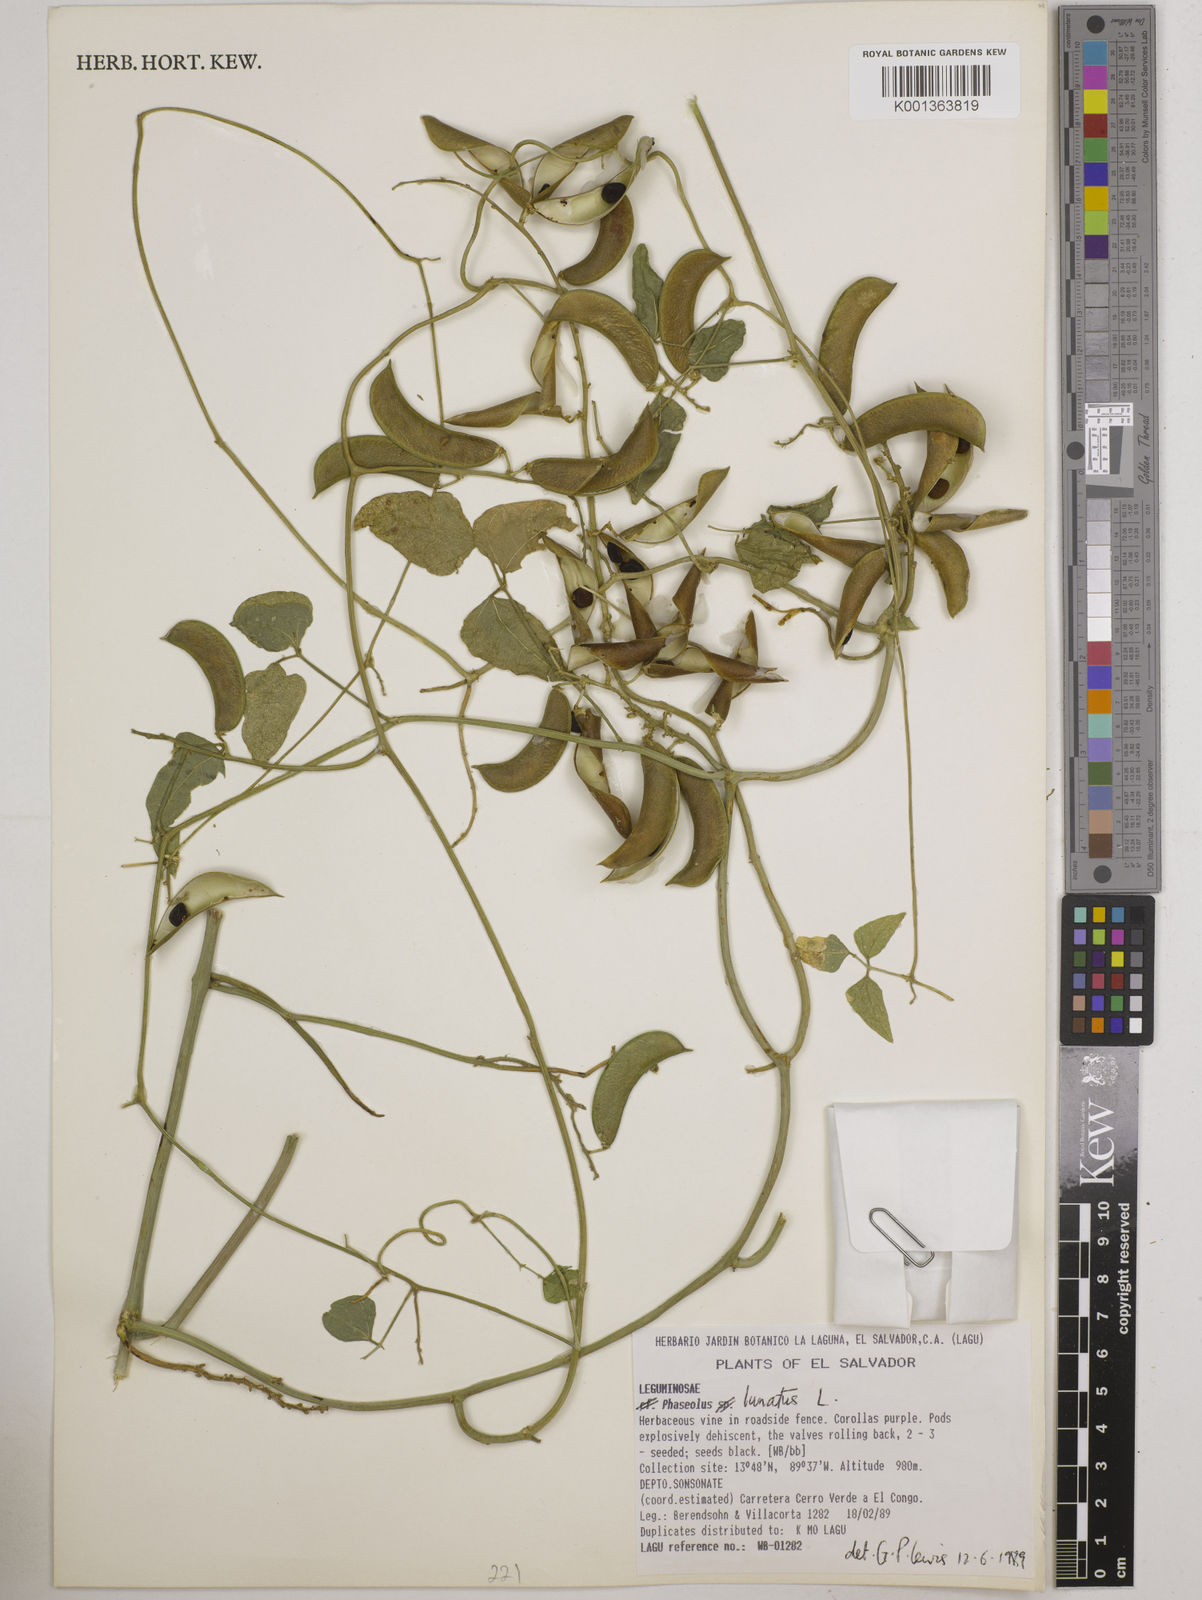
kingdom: Plantae
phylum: Tracheophyta
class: Magnoliopsida
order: Fabales
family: Fabaceae
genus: Phaseolus
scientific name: Phaseolus lunatus
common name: Sieva bean
